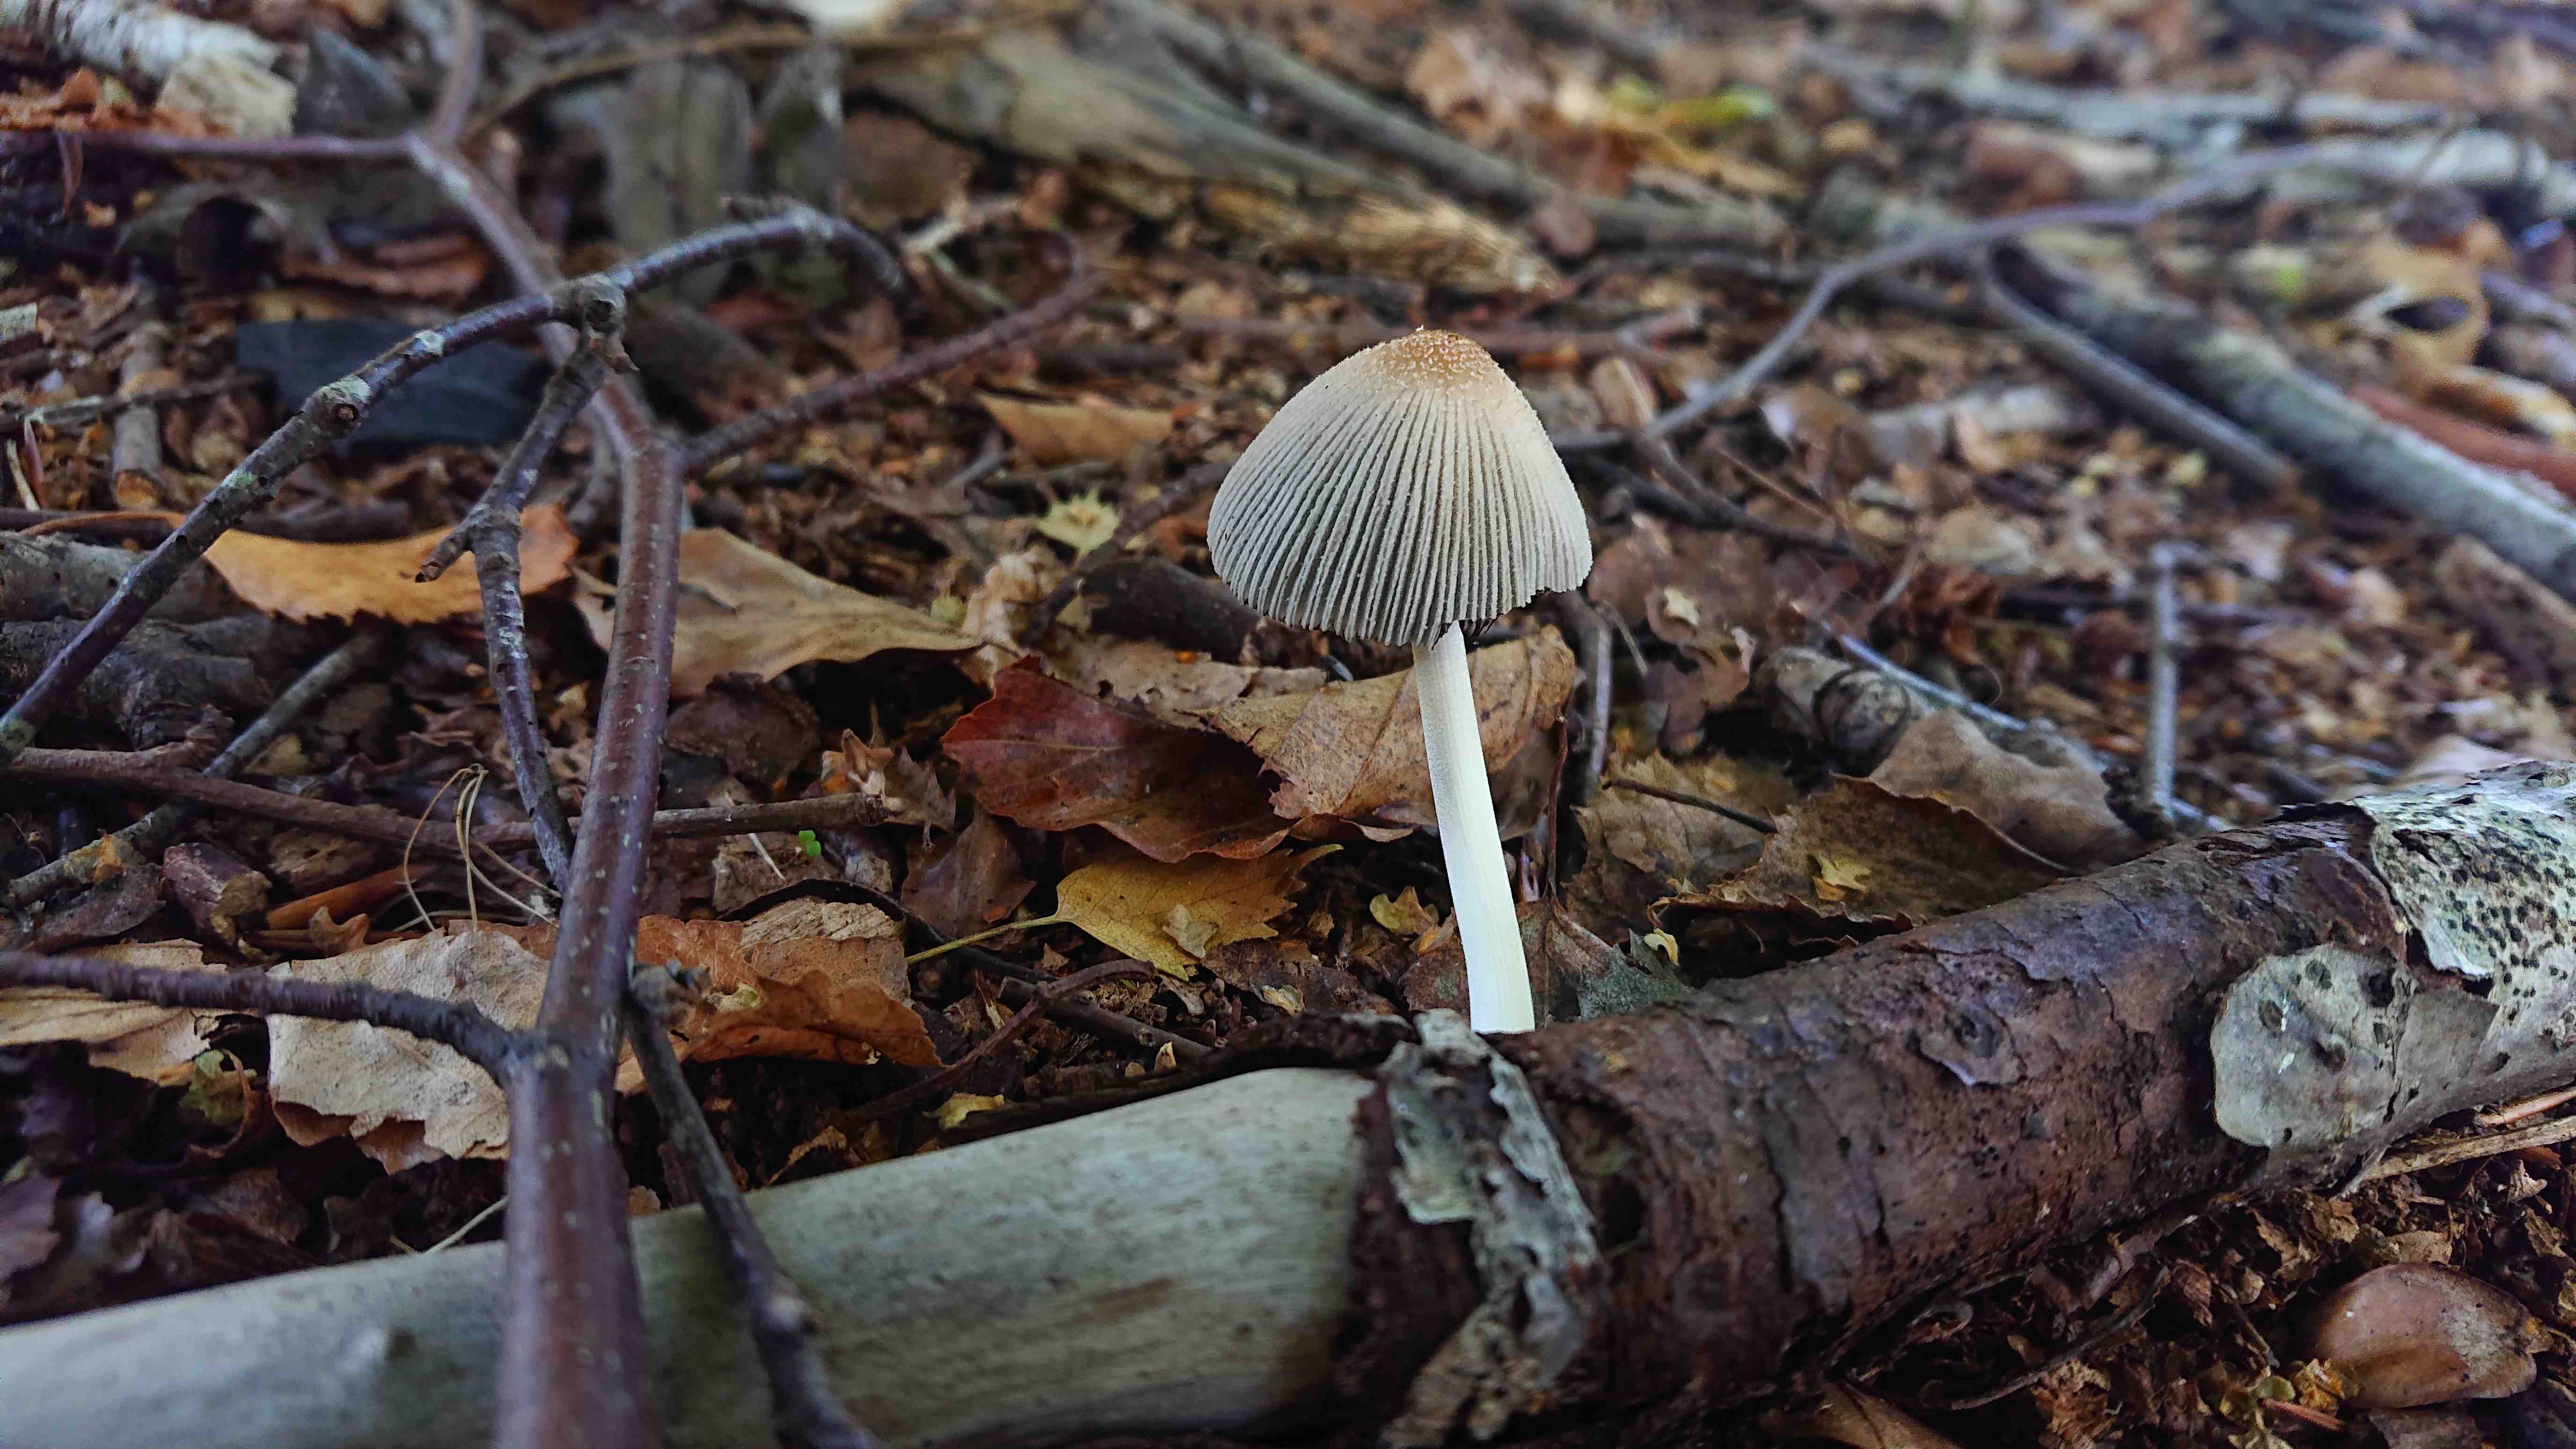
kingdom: Fungi
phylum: Basidiomycota
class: Agaricomycetes
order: Agaricales
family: Psathyrellaceae
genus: Coprinellus
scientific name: Coprinellus
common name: blækhat
